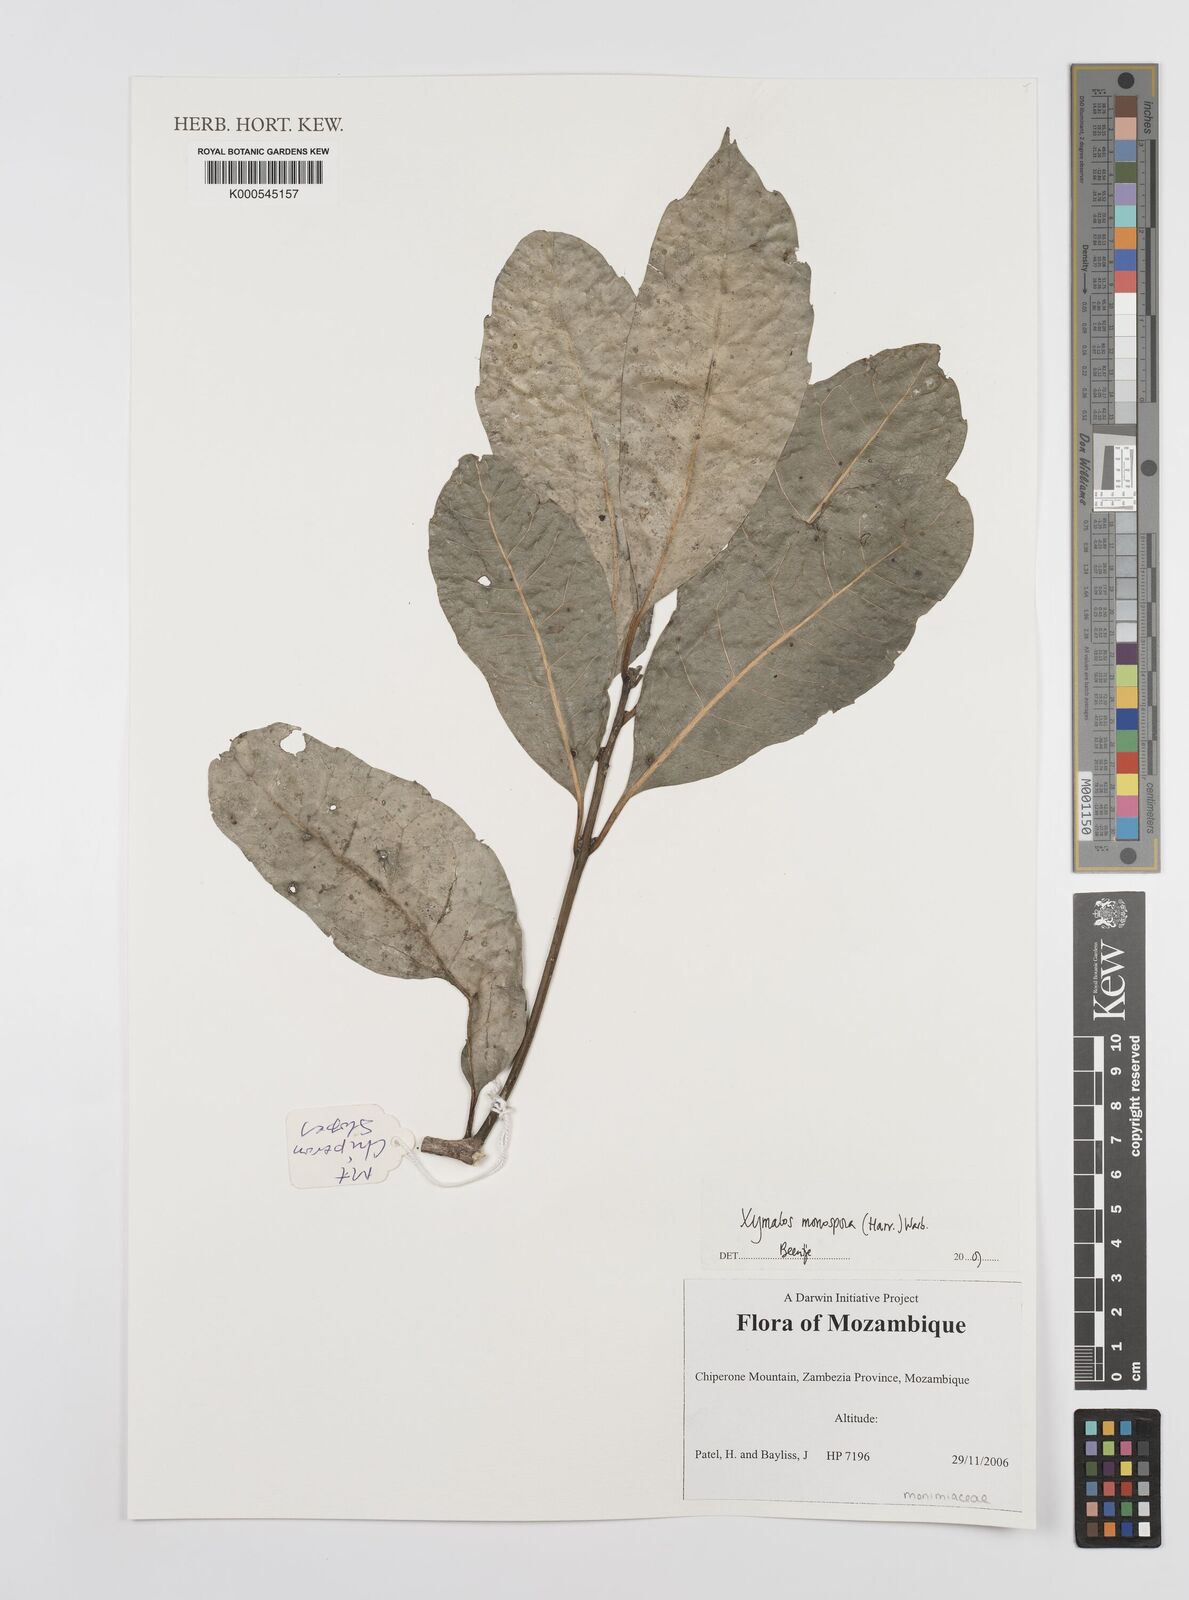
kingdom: Plantae
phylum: Tracheophyta
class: Magnoliopsida
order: Laurales
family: Monimiaceae
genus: Xymalos
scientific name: Xymalos
